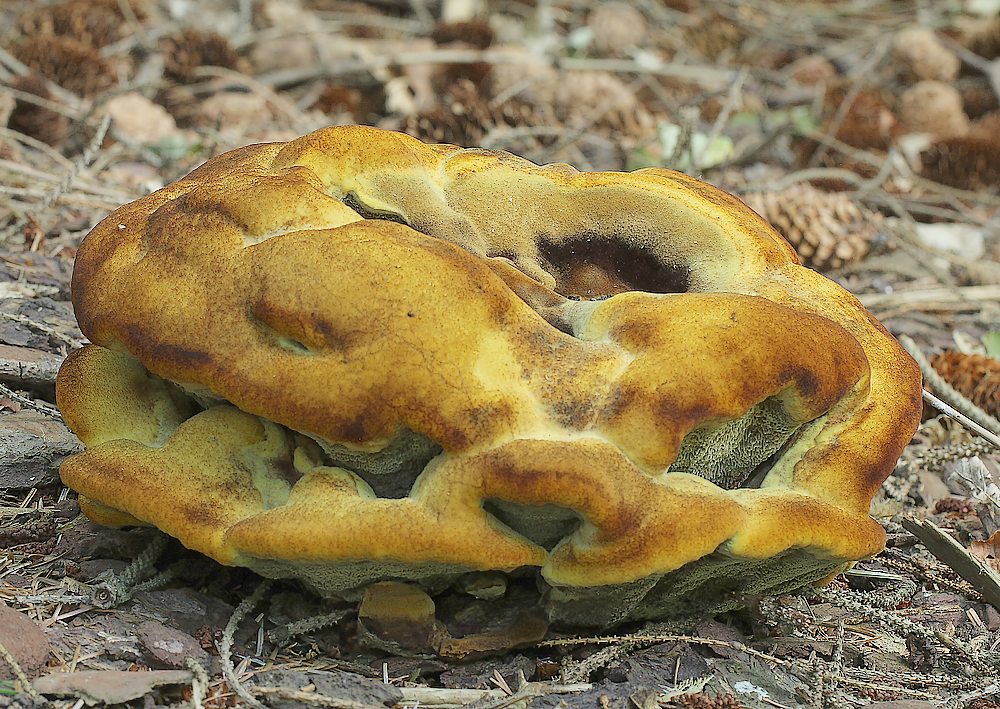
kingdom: Fungi
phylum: Basidiomycota
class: Agaricomycetes
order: Polyporales
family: Laetiporaceae
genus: Phaeolus
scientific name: Phaeolus schweinitzii
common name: brunporesvamp
